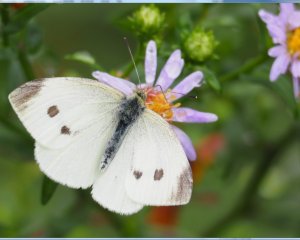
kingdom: Animalia
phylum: Arthropoda
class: Insecta
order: Lepidoptera
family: Pieridae
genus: Pieris
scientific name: Pieris rapae
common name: Cabbage White
